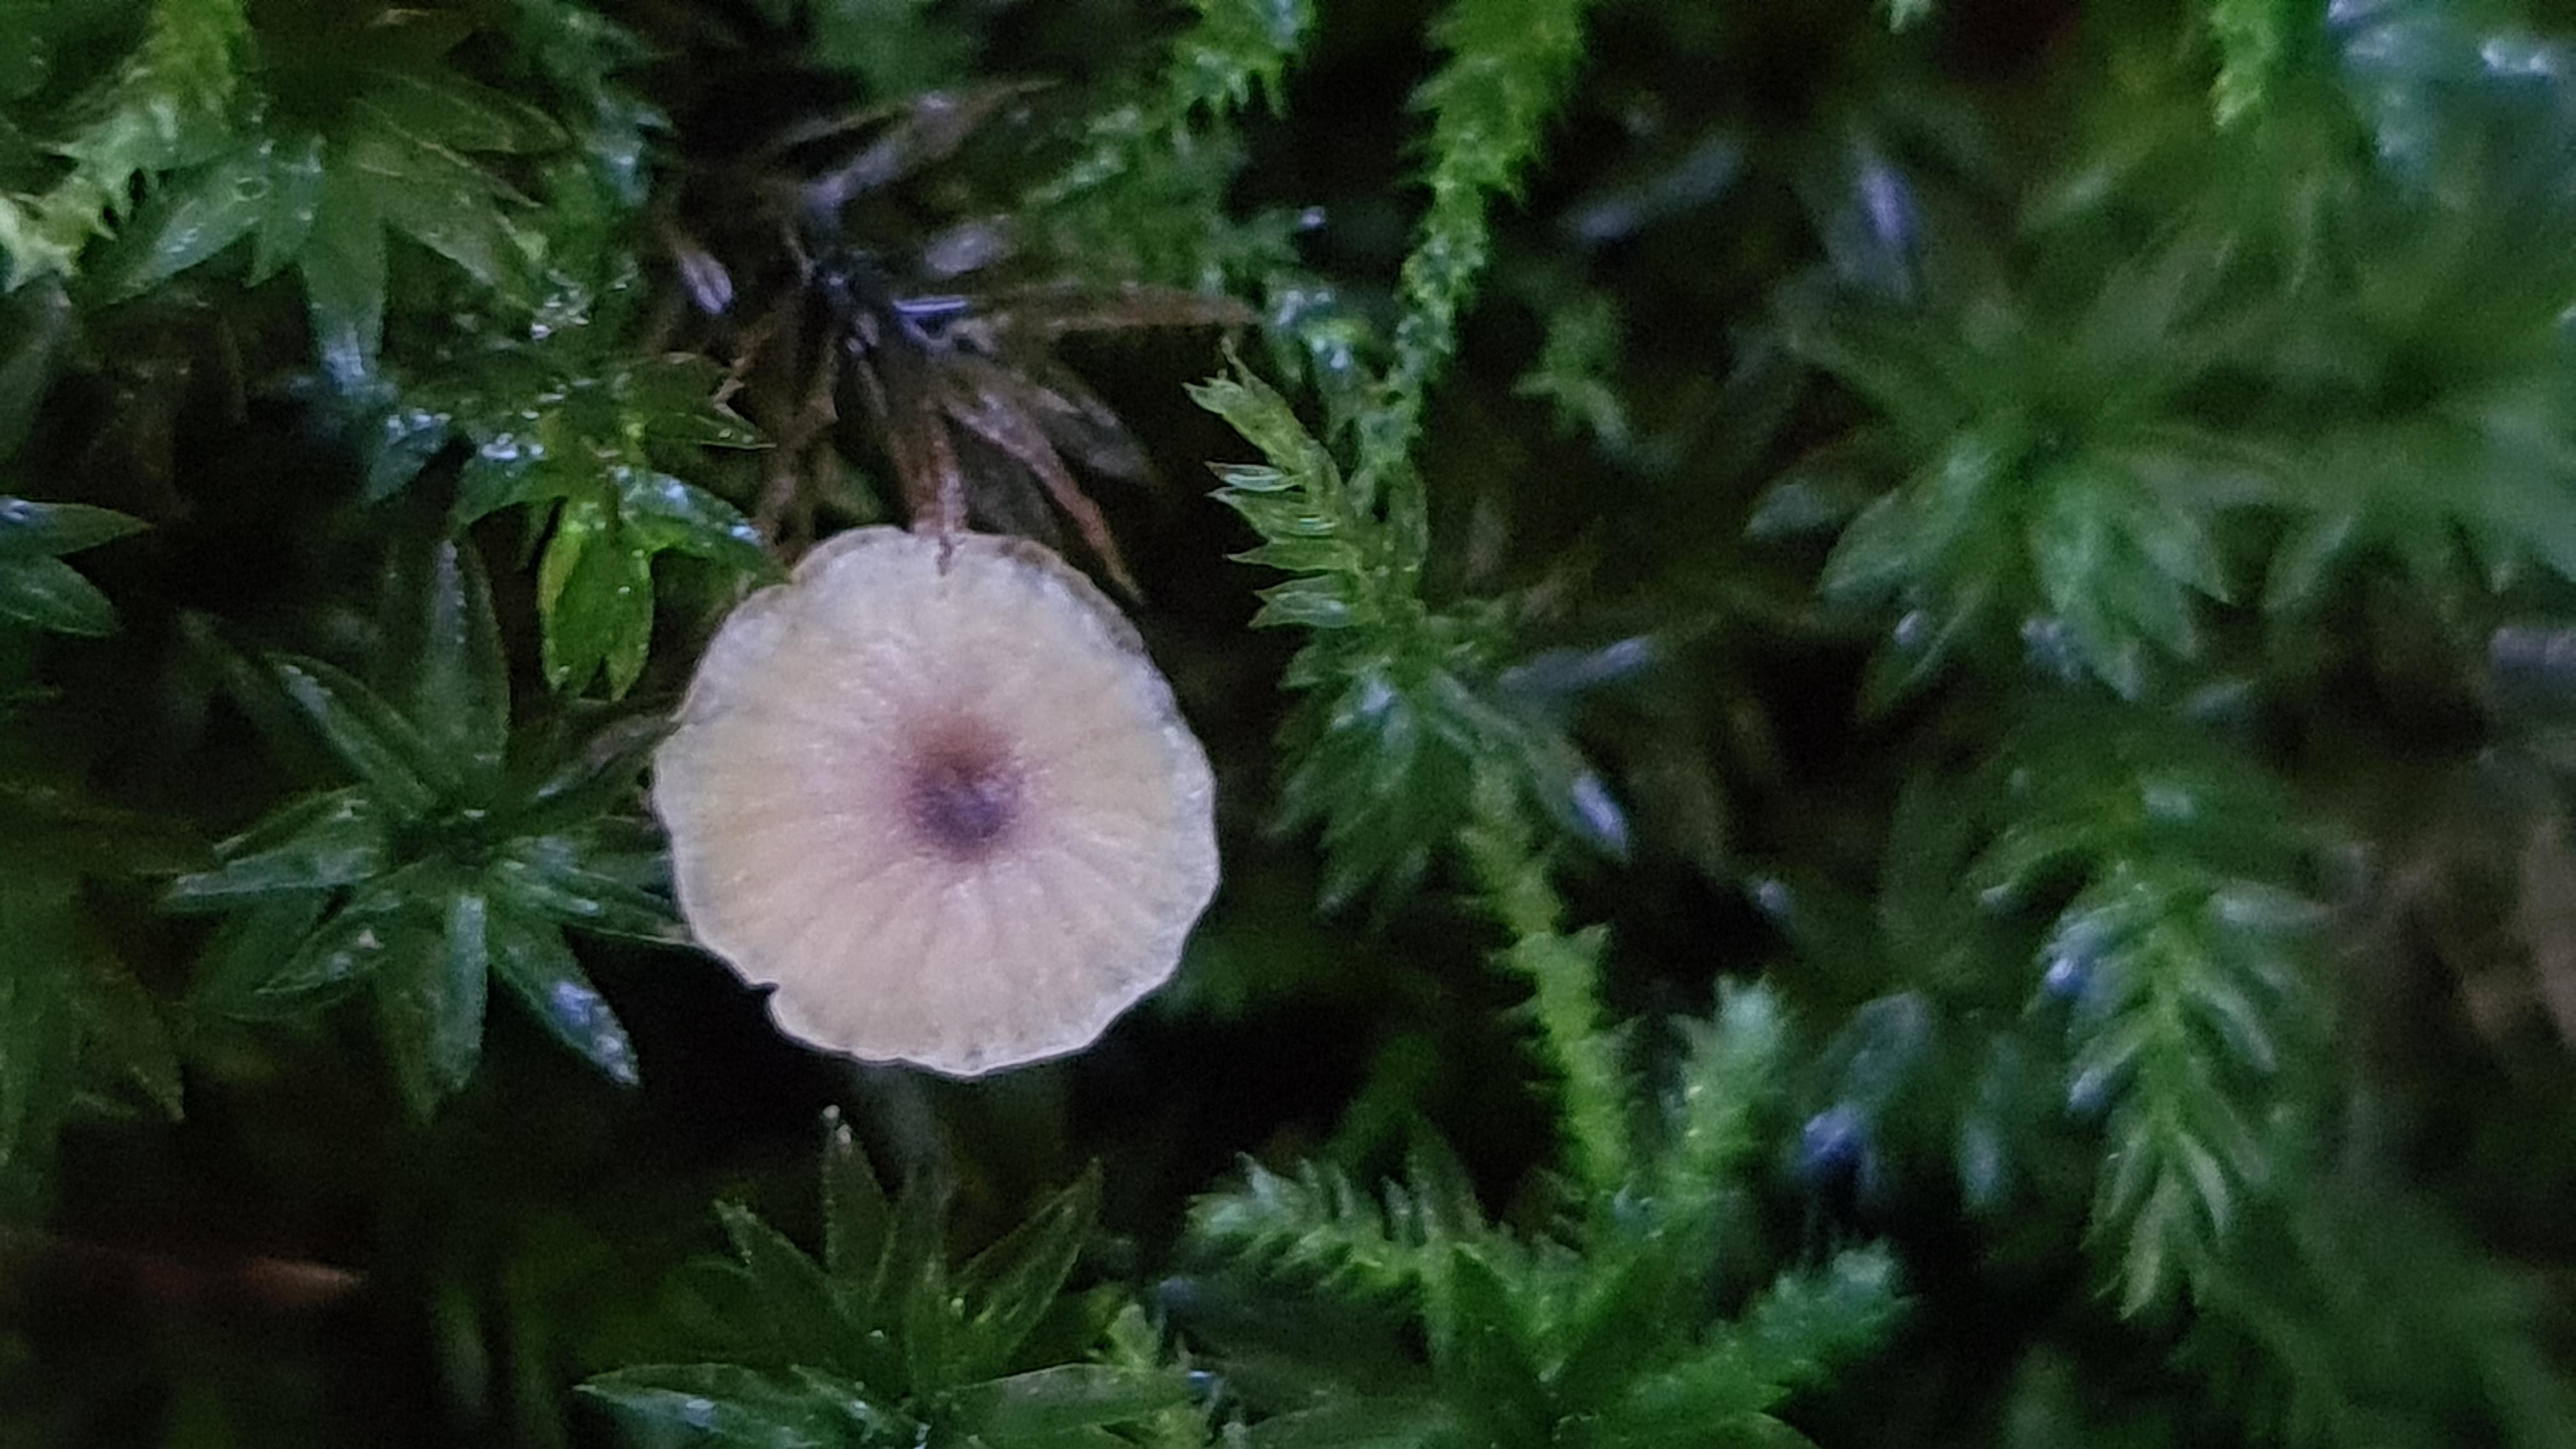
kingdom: Fungi
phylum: Basidiomycota
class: Agaricomycetes
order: Hymenochaetales
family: Rickenellaceae
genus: Rickenella
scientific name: Rickenella swartzii
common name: finstokket mosnavlehat
